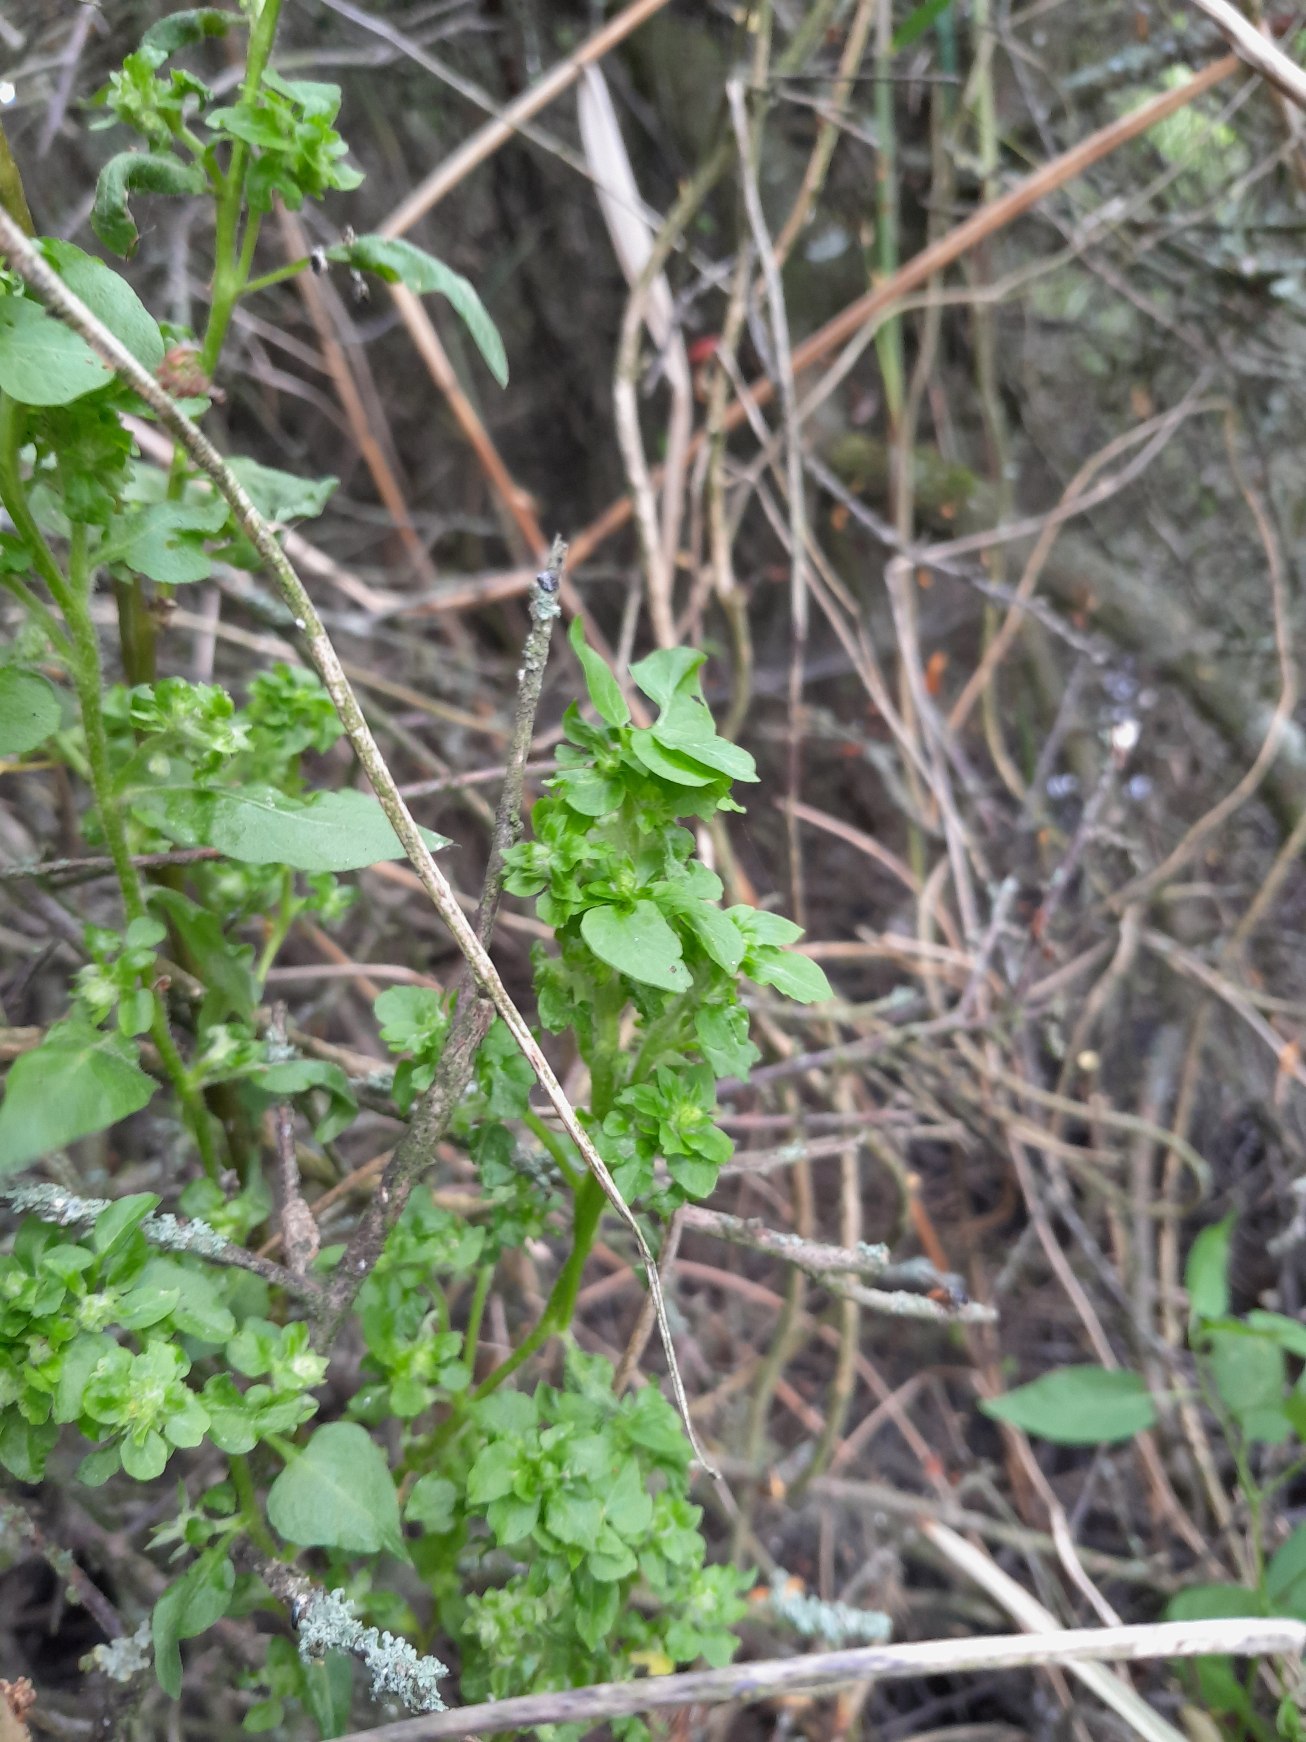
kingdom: Animalia
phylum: Arthropoda
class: Arachnida
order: Trombidiformes
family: Eriophyidae
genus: Aceria
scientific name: Aceria lycopersici
